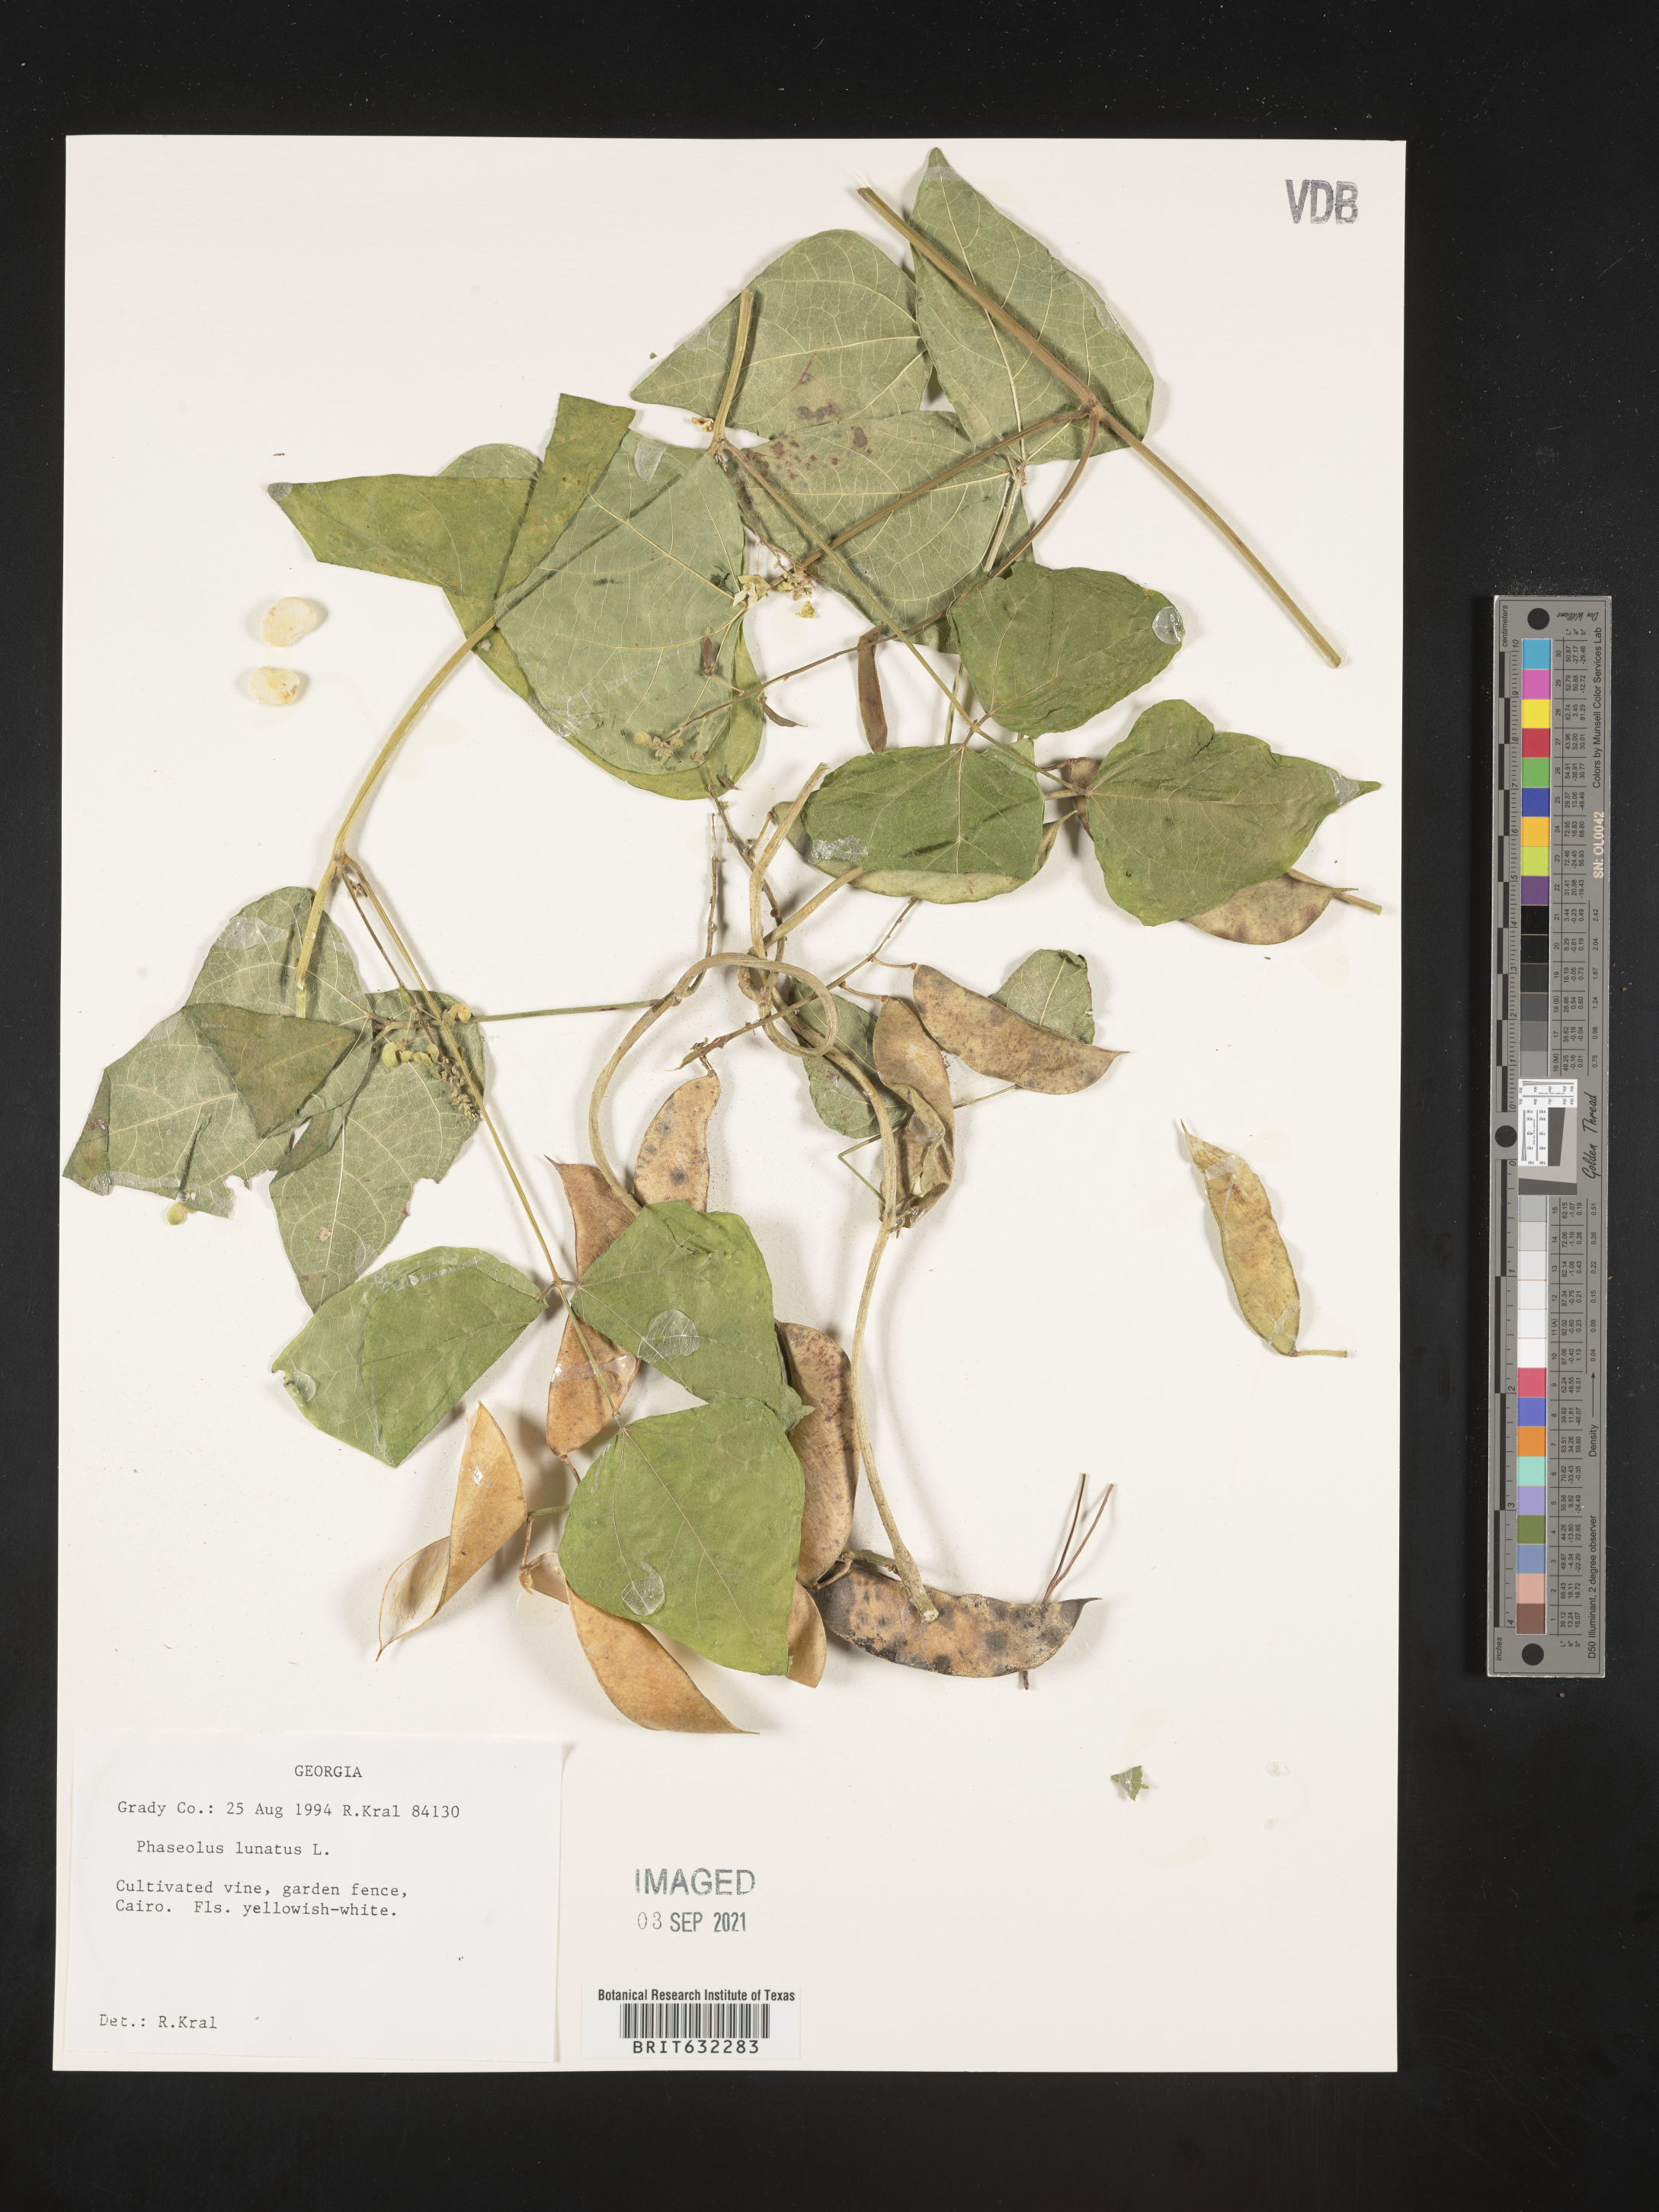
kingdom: Plantae
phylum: Tracheophyta
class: Magnoliopsida
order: Fabales
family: Fabaceae
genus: Phaseolus
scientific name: Phaseolus
